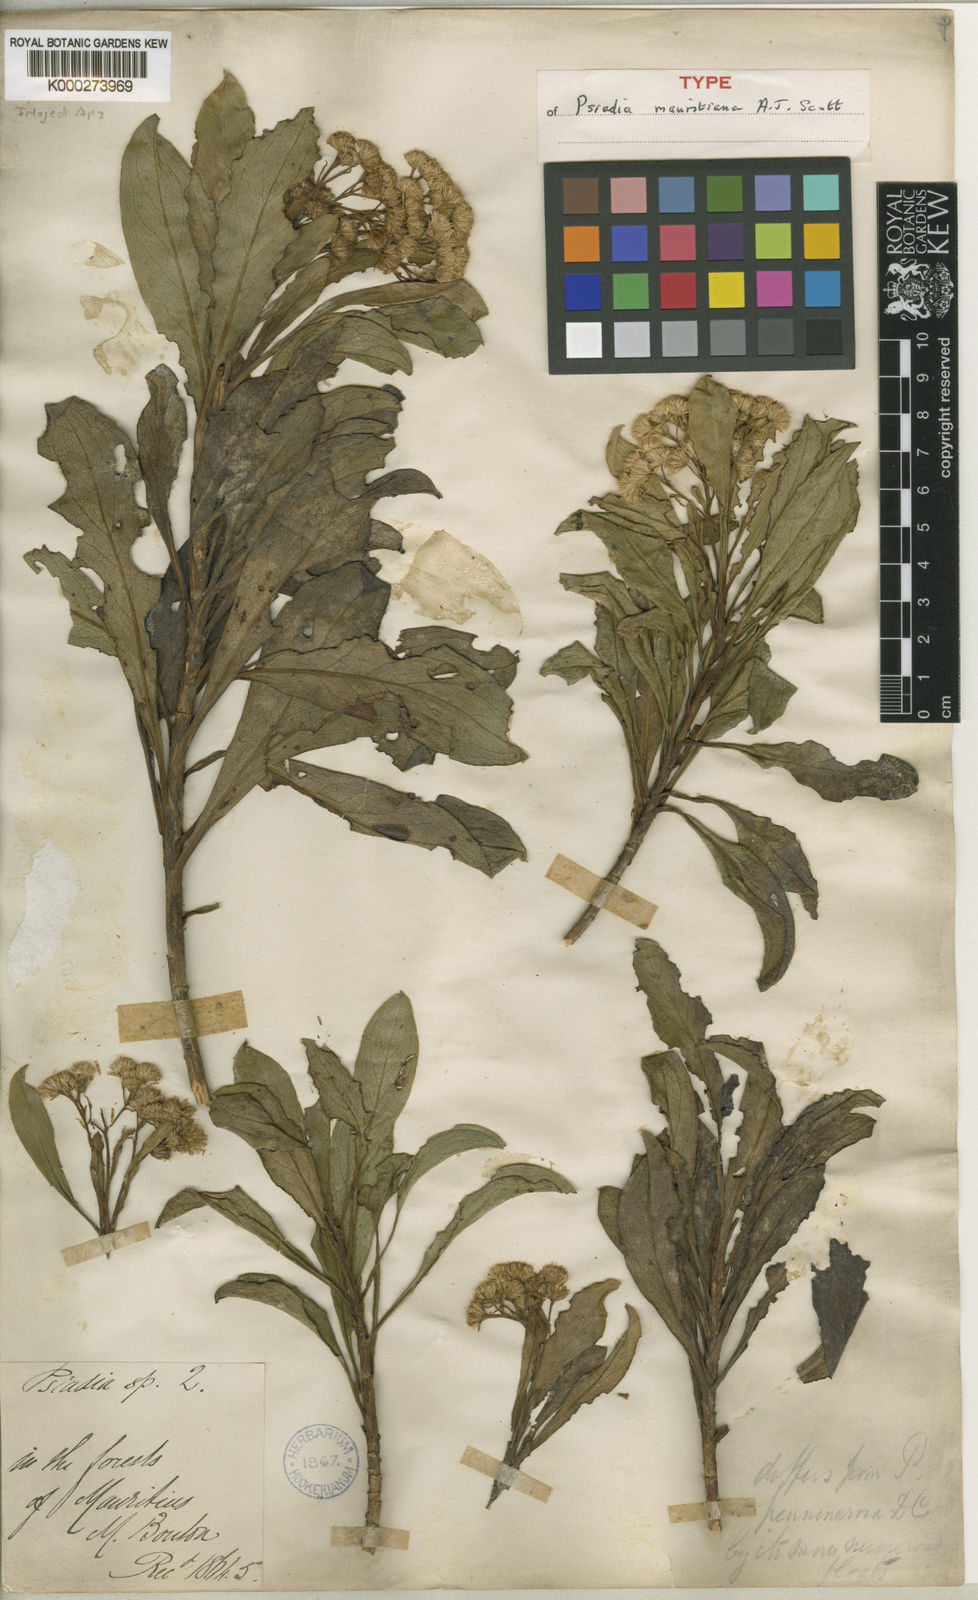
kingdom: Plantae
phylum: Tracheophyta
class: Magnoliopsida
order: Asterales
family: Asteraceae
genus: Psiadia
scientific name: Psiadia mauritiana
